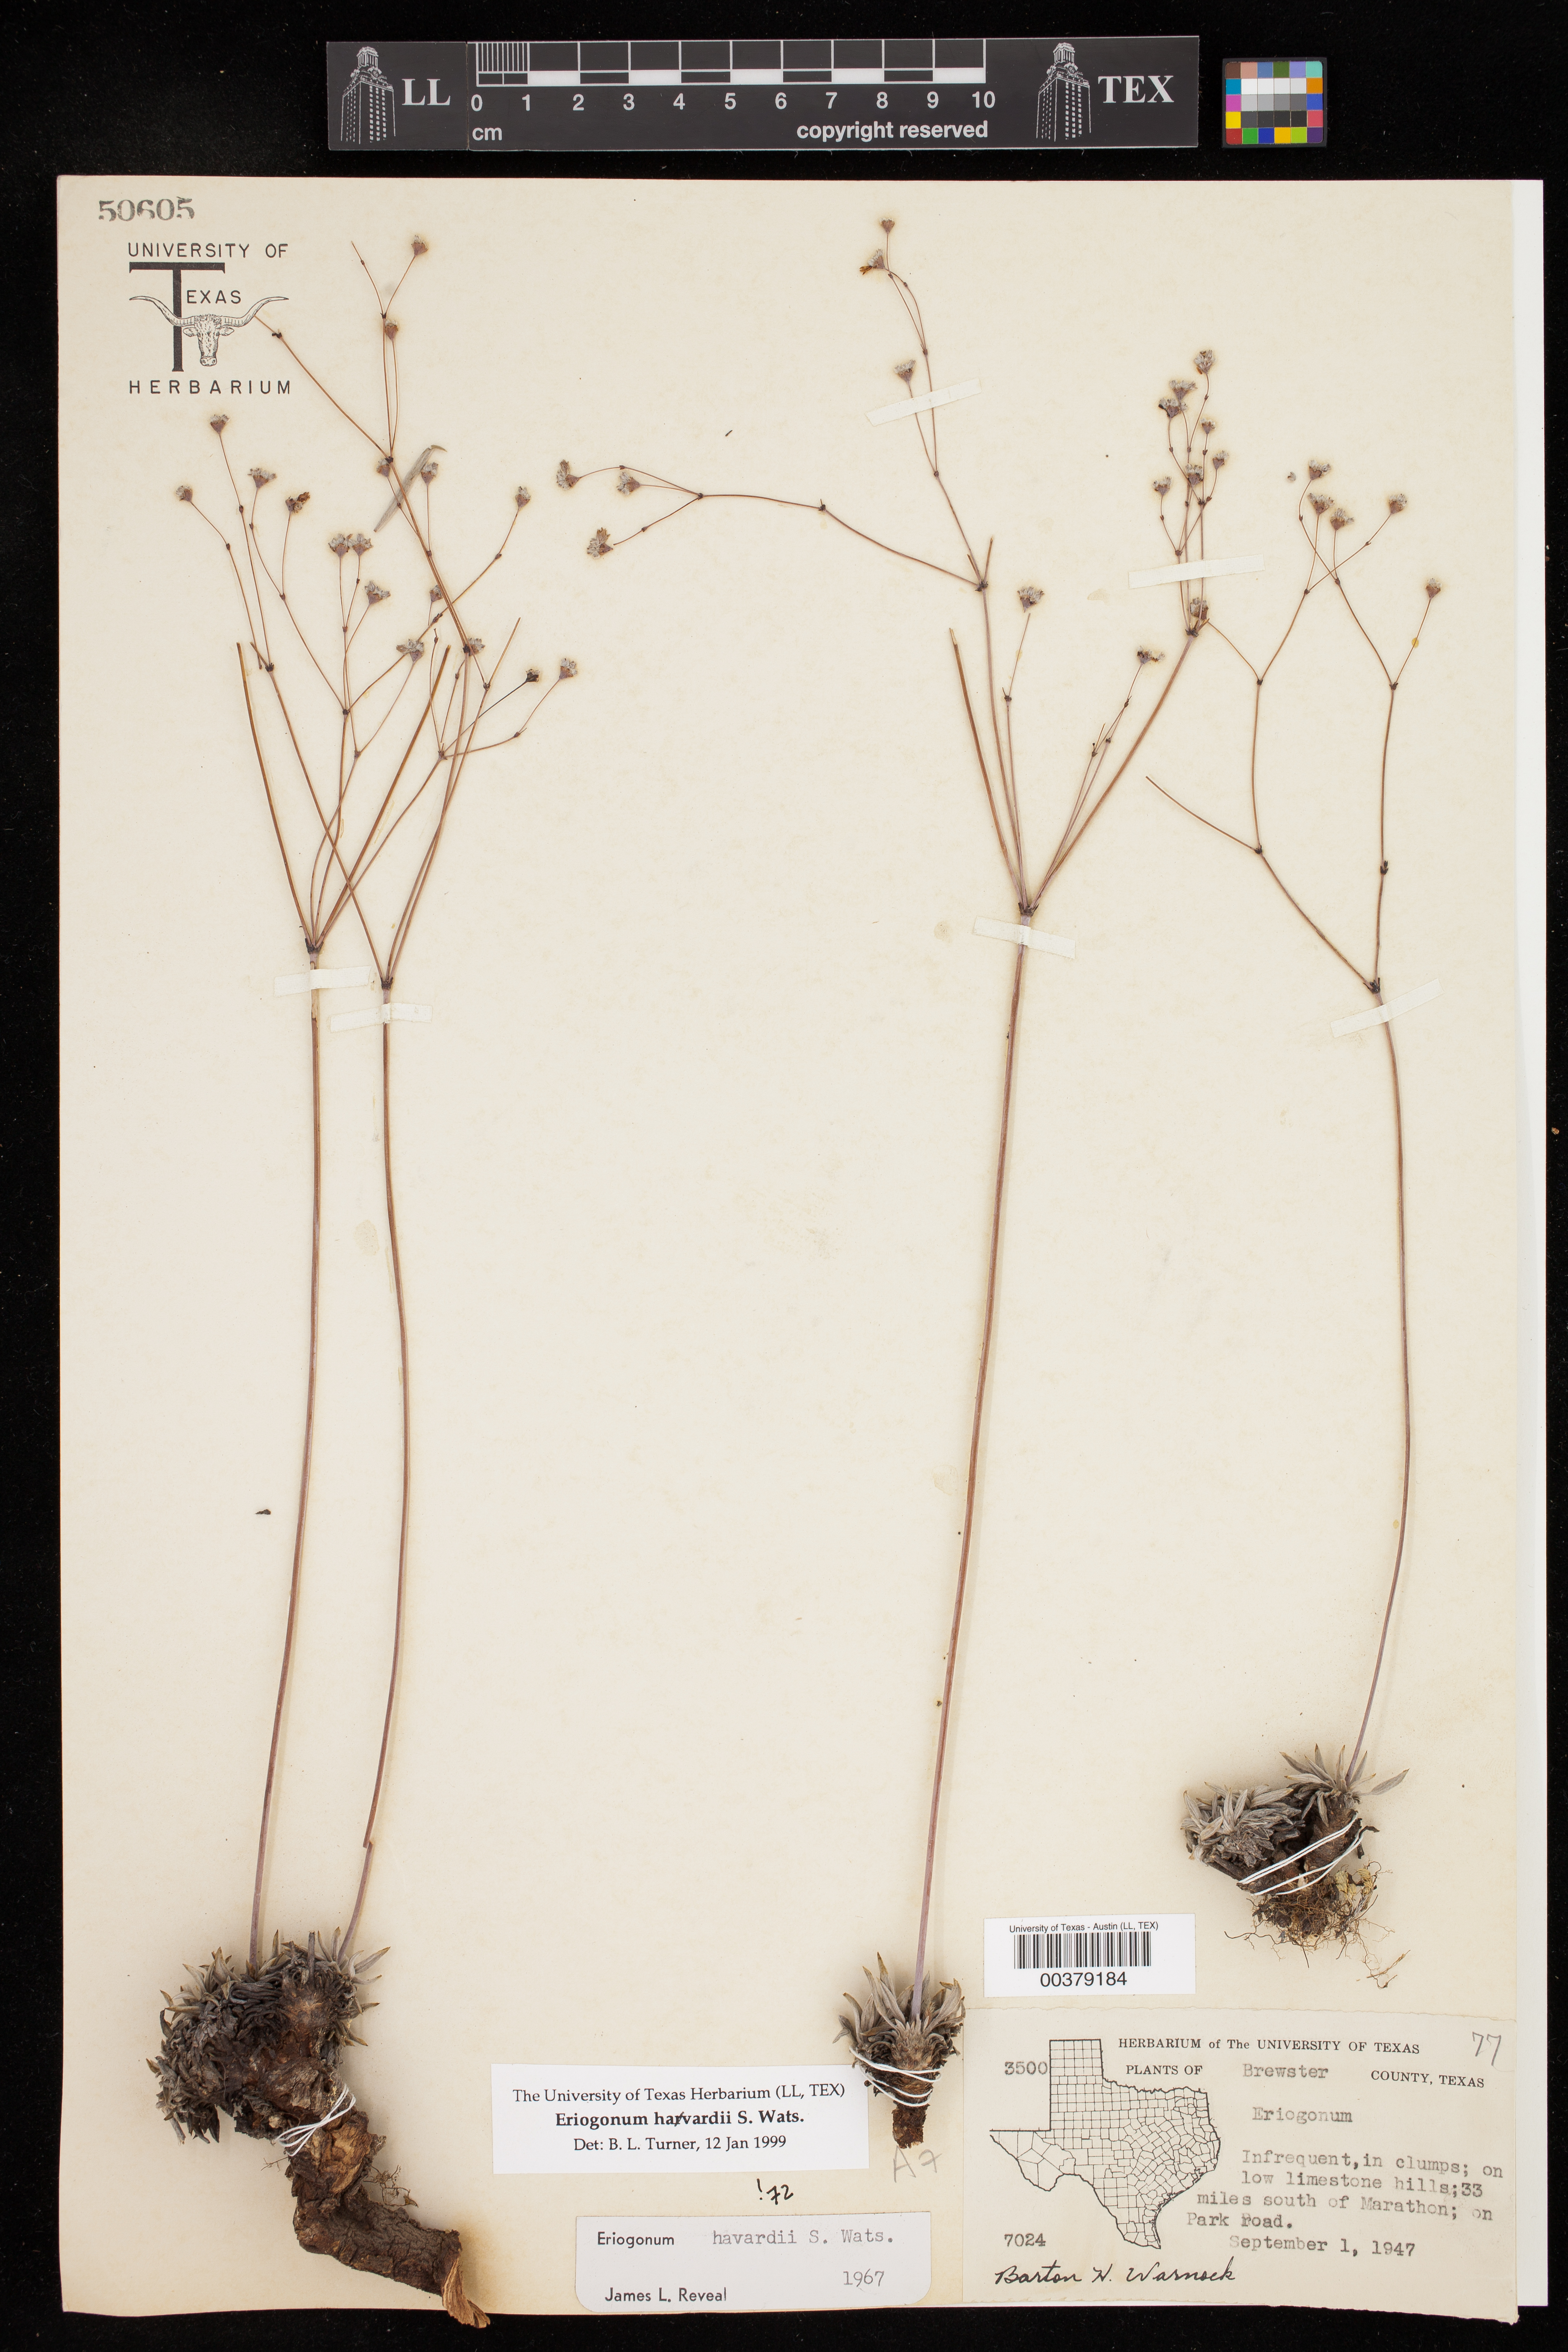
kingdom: Plantae
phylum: Tracheophyta
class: Magnoliopsida
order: Caryophyllales
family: Polygonaceae
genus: Eriogonum
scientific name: Eriogonum havardii
